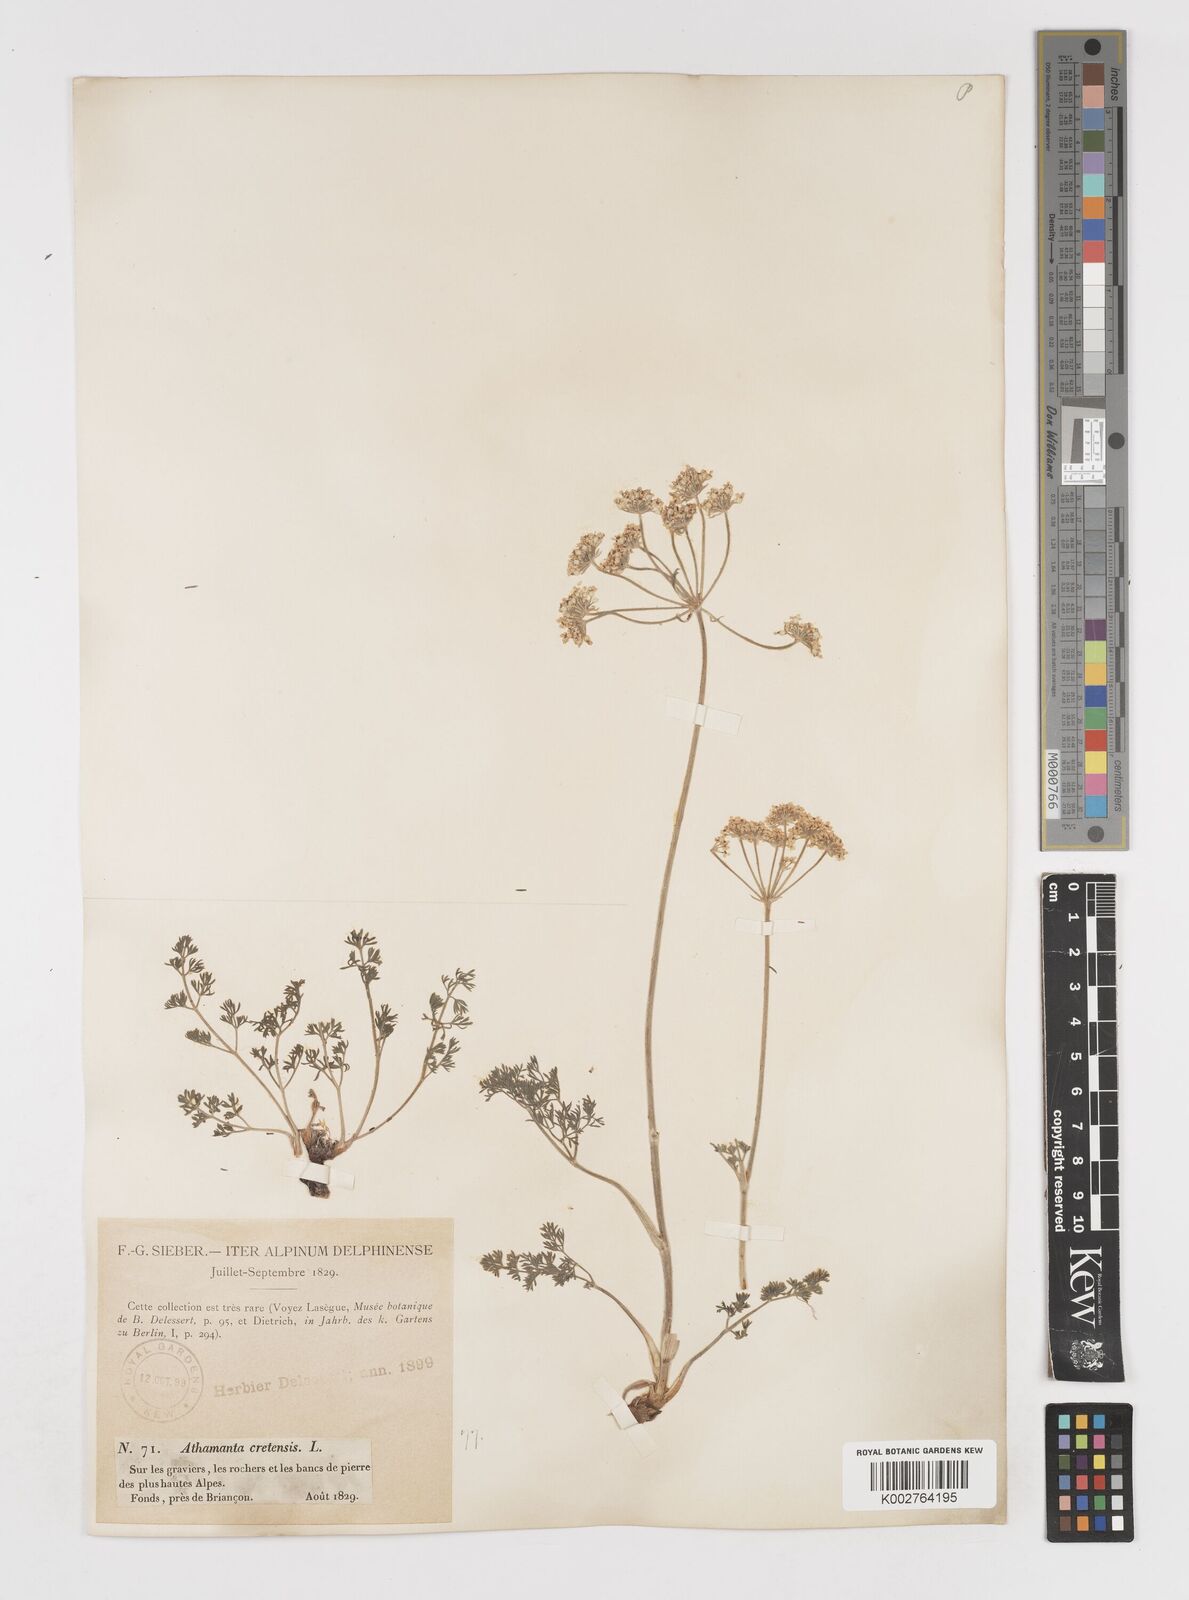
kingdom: Plantae
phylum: Tracheophyta
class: Magnoliopsida
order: Apiales
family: Apiaceae
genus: Athamanta
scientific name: Athamanta cretensis
